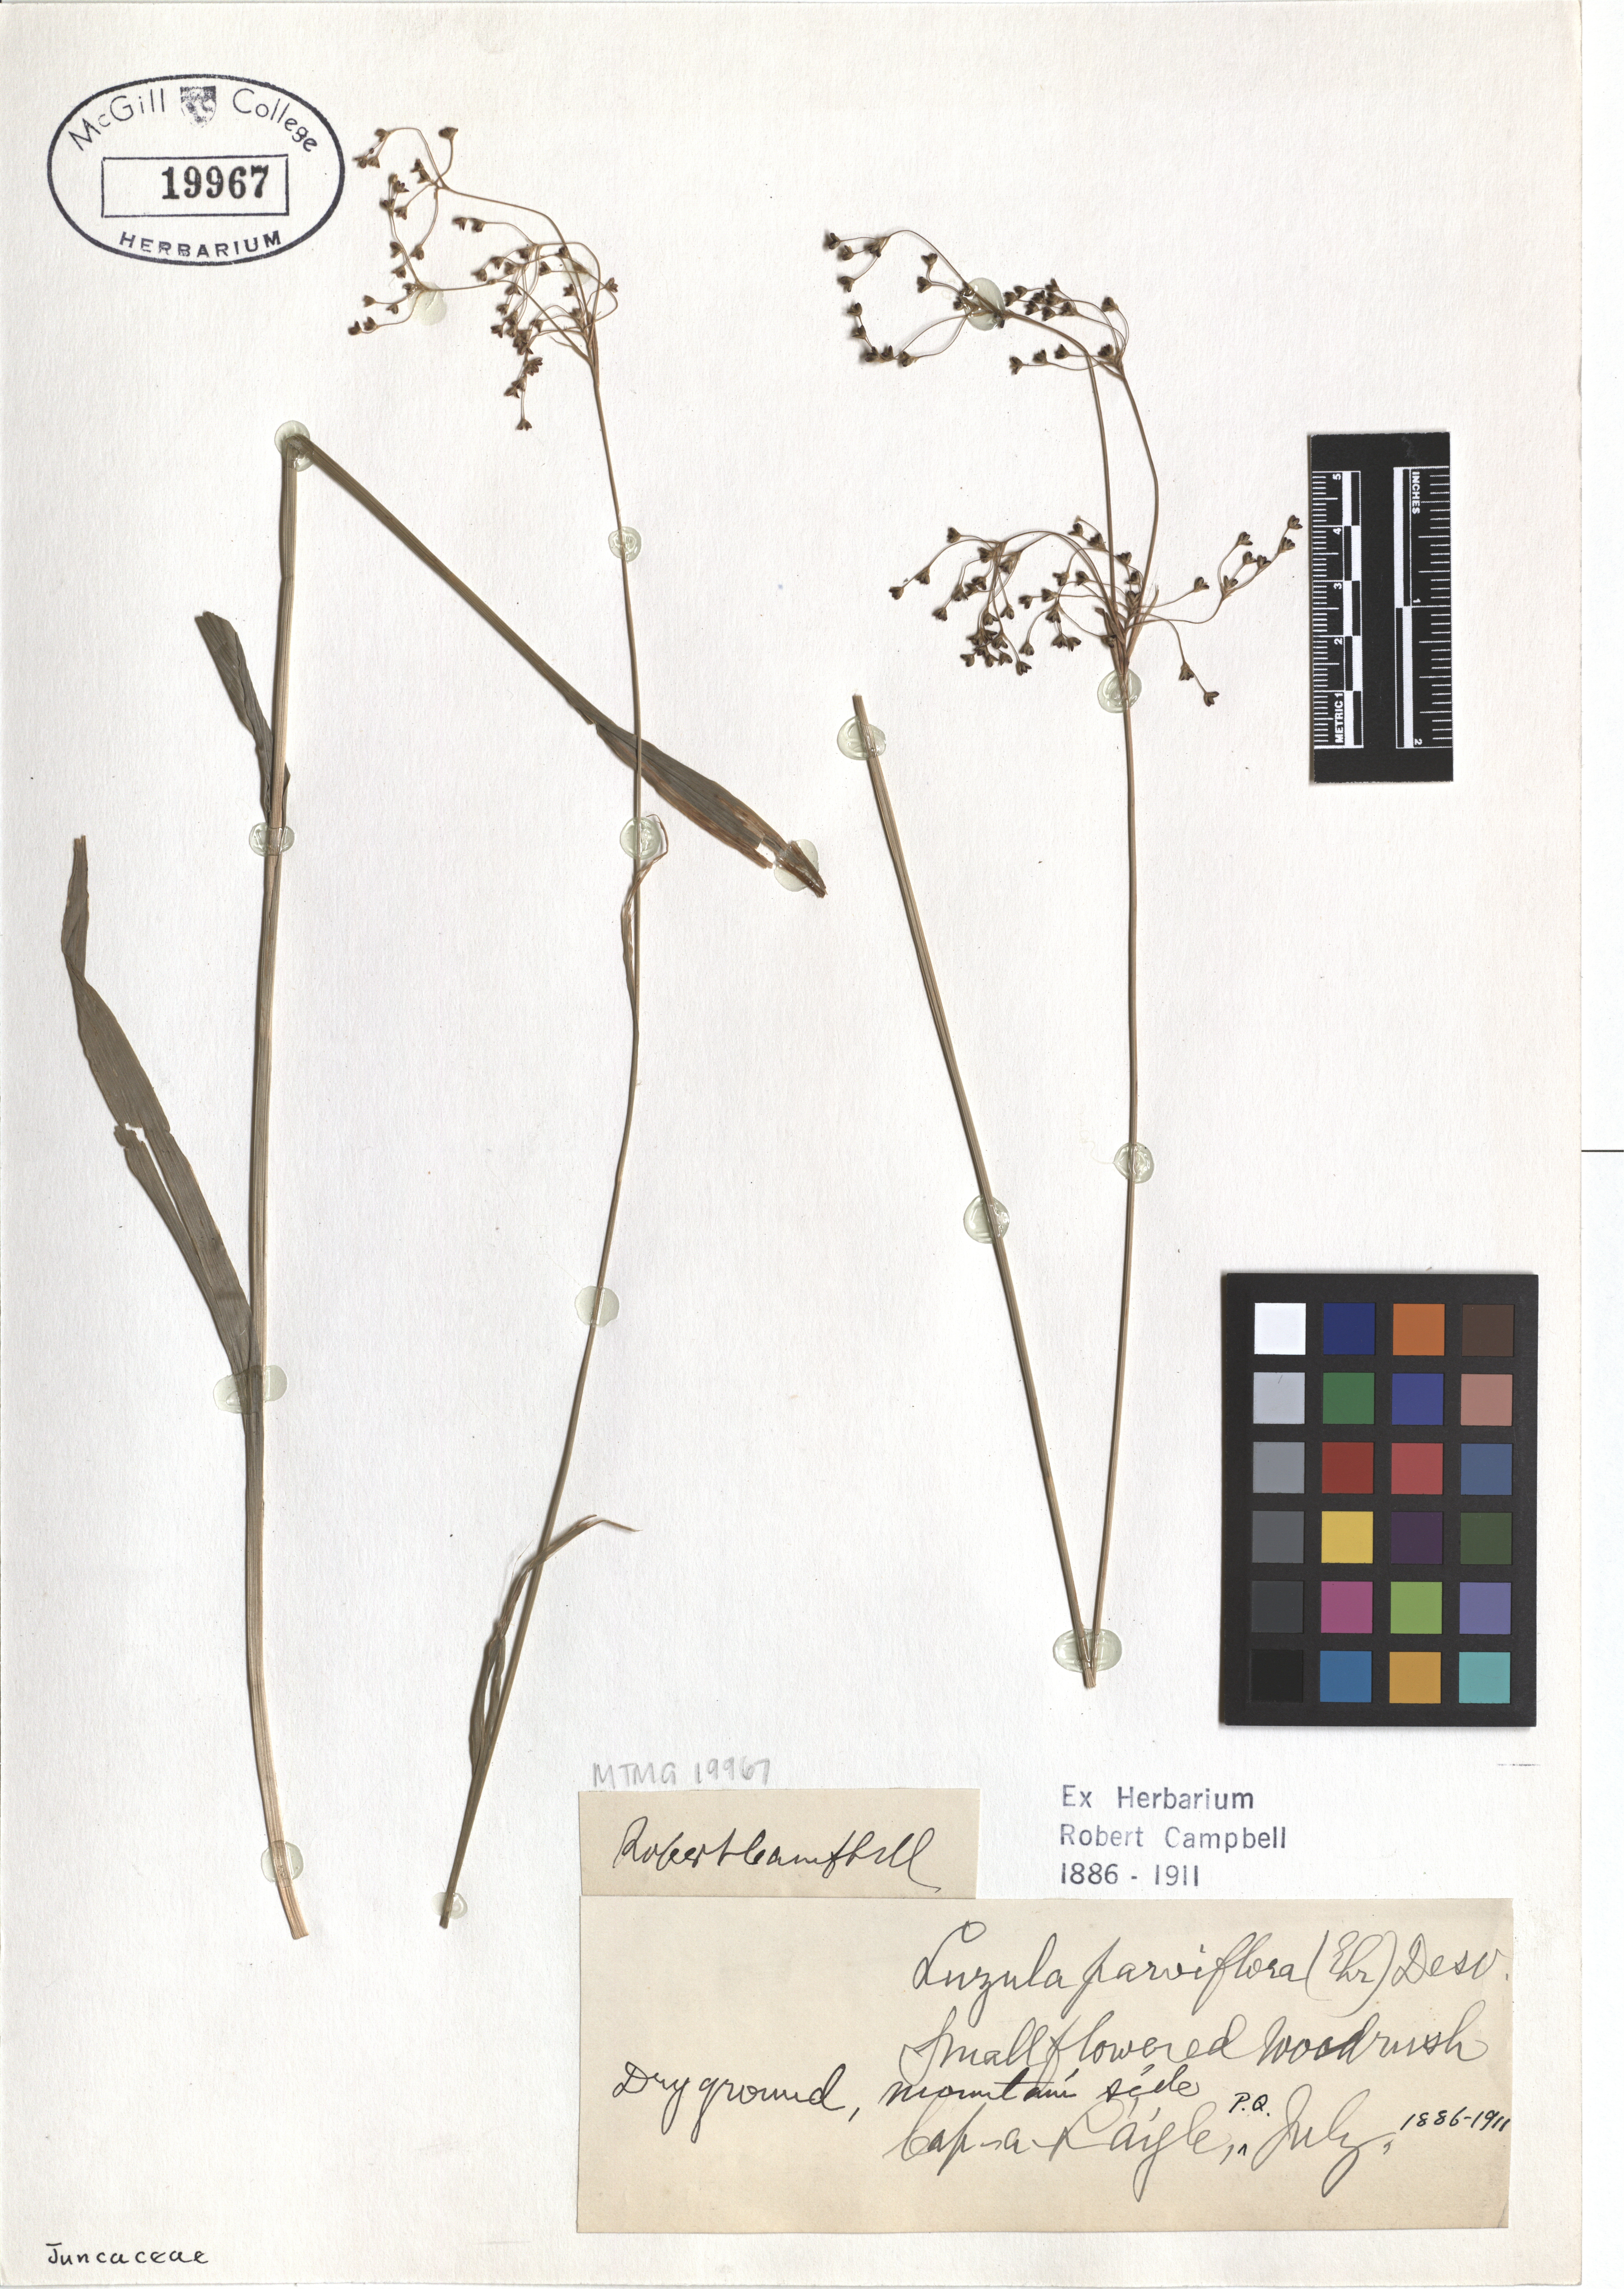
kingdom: Plantae
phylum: Tracheophyta
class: Liliopsida
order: Poales
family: Juncaceae
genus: Luzula
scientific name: Luzula parviflora
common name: Millet woodrush
